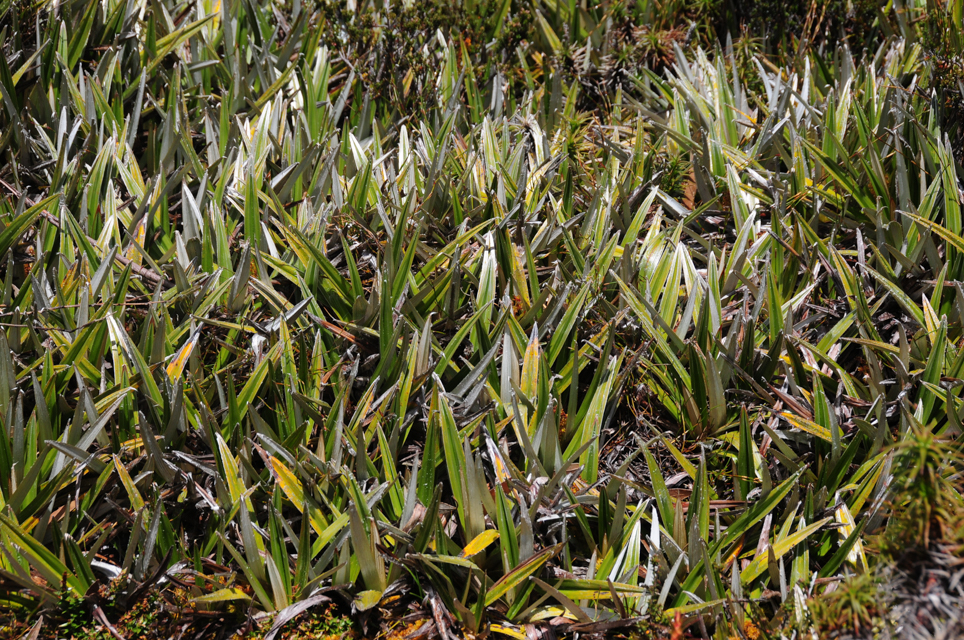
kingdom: Plantae
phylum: Tracheophyta
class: Liliopsida
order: Asparagales
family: Asteliaceae
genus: Astelia
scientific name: Astelia alpina
